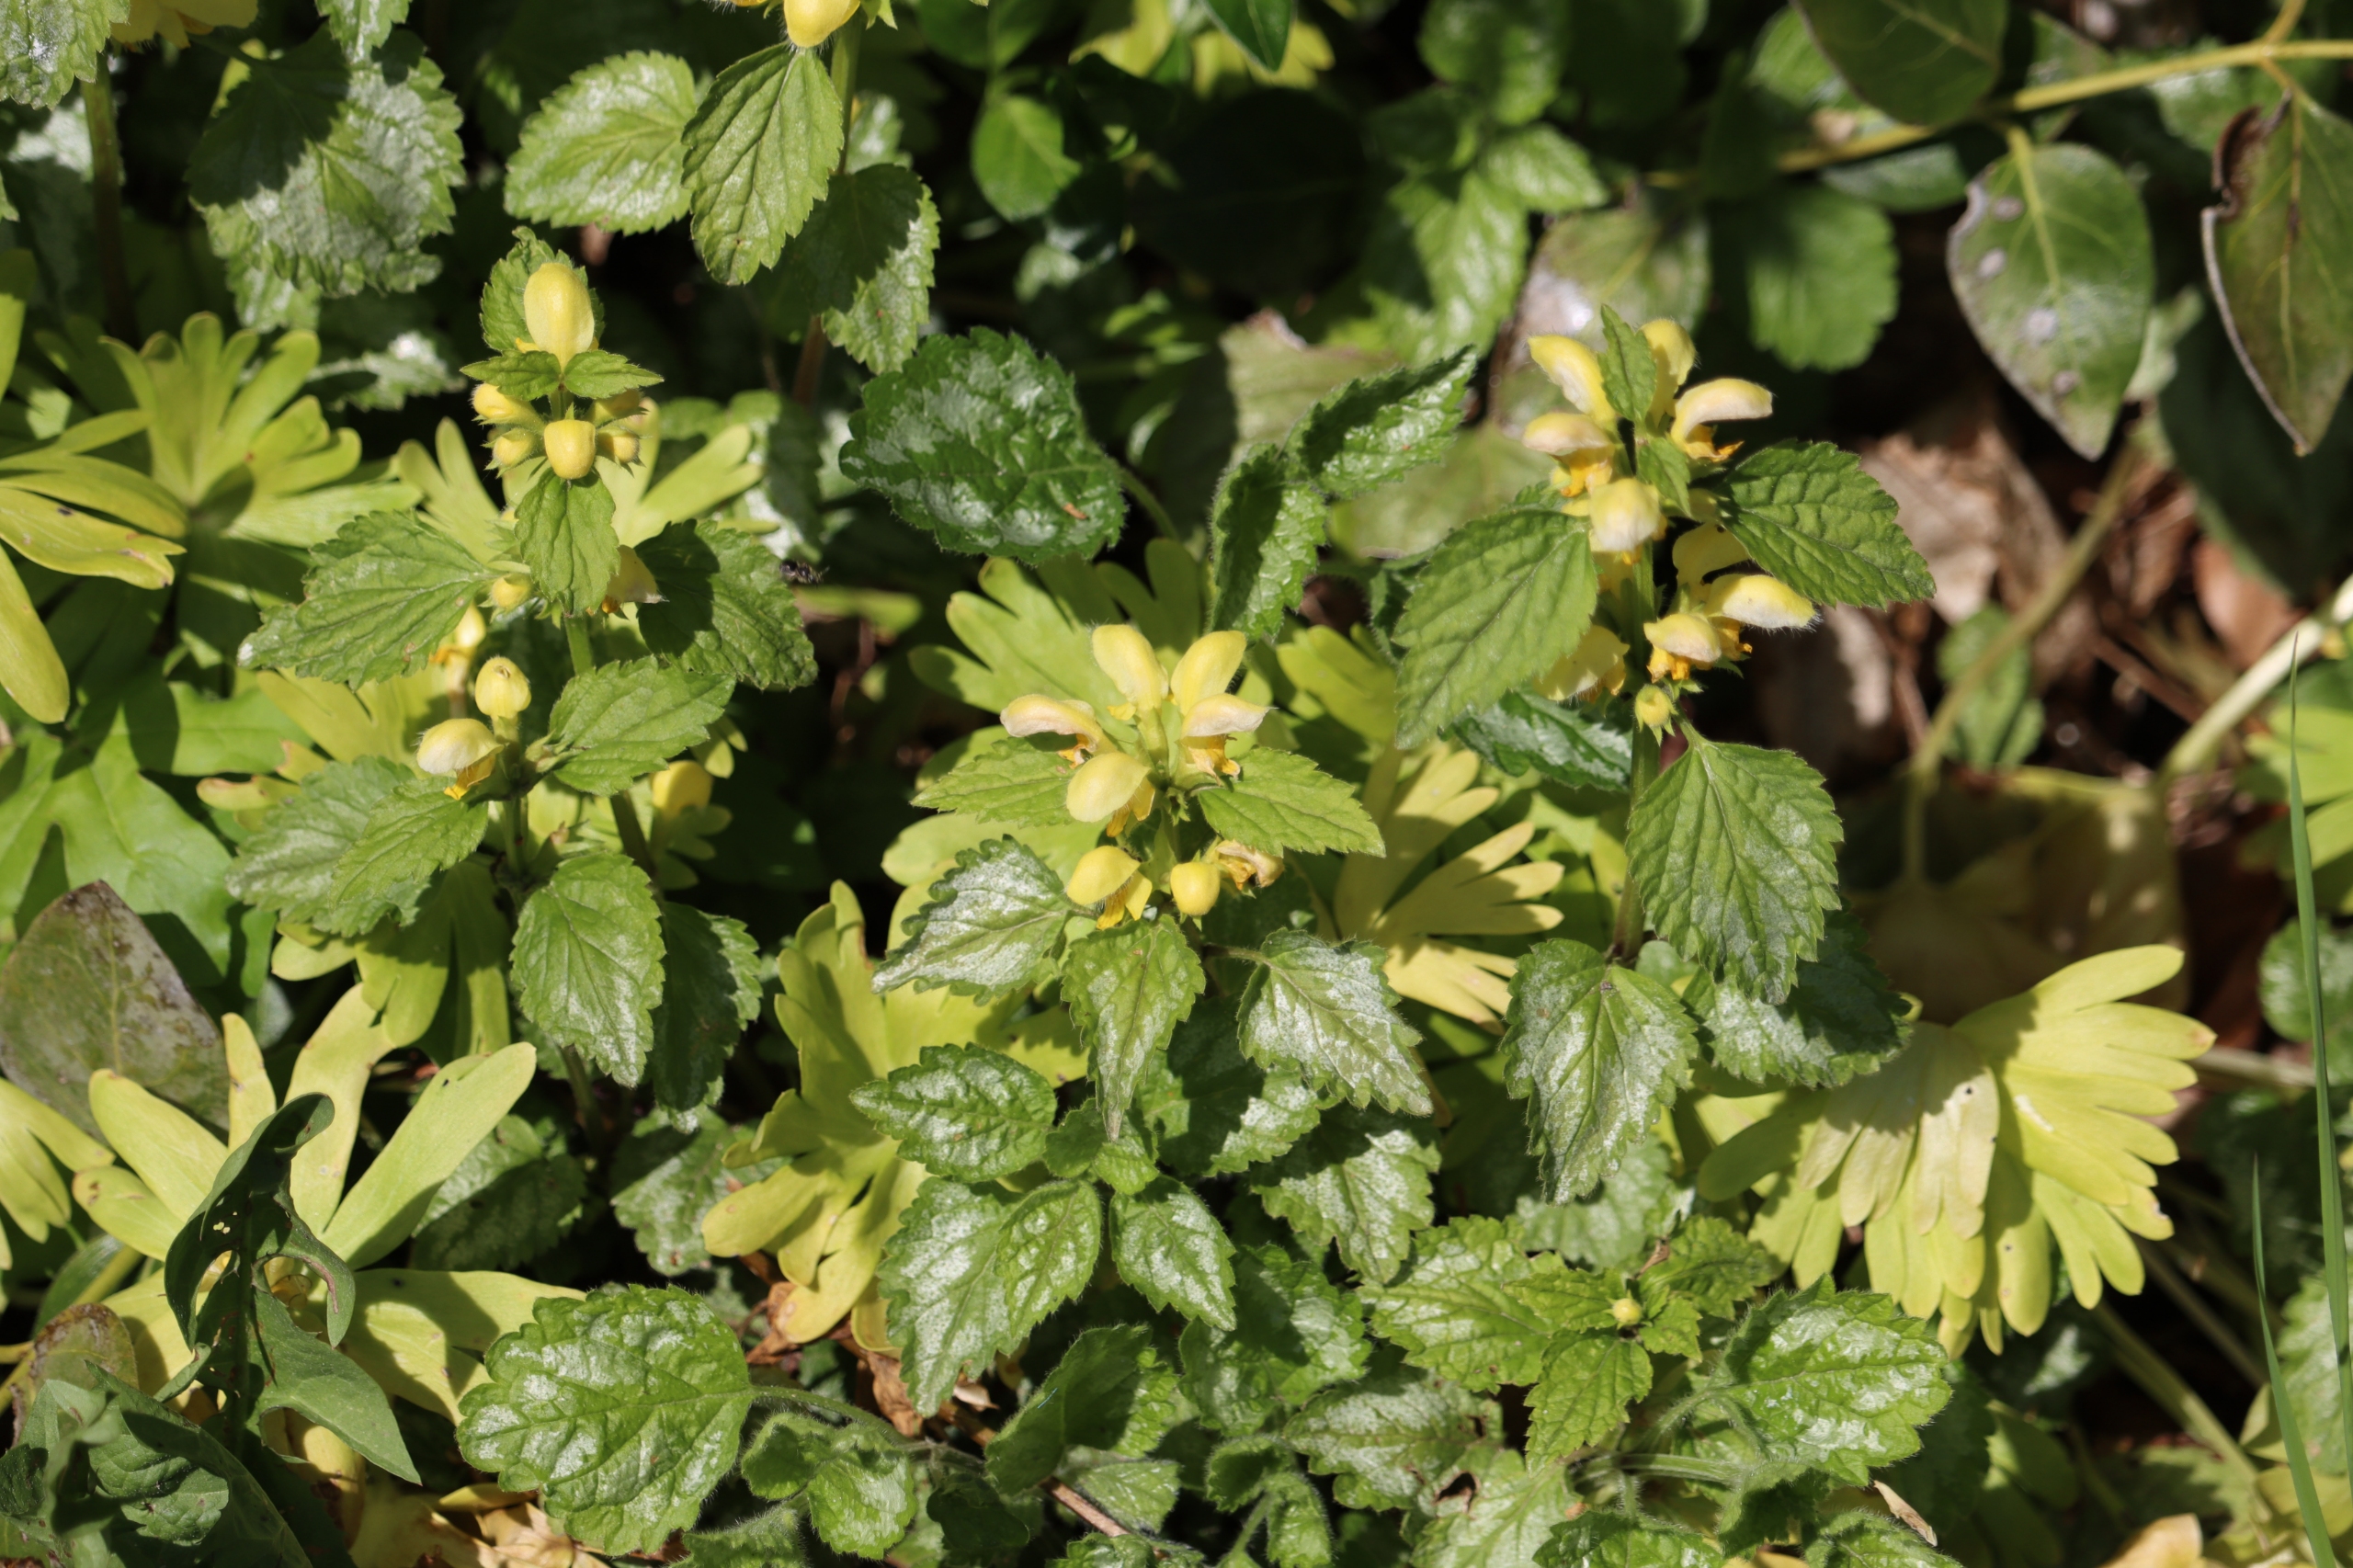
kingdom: Plantae
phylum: Tracheophyta
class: Magnoliopsida
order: Lamiales
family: Lamiaceae
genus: Lamium
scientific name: Lamium galeobdolon
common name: Guldnælde
